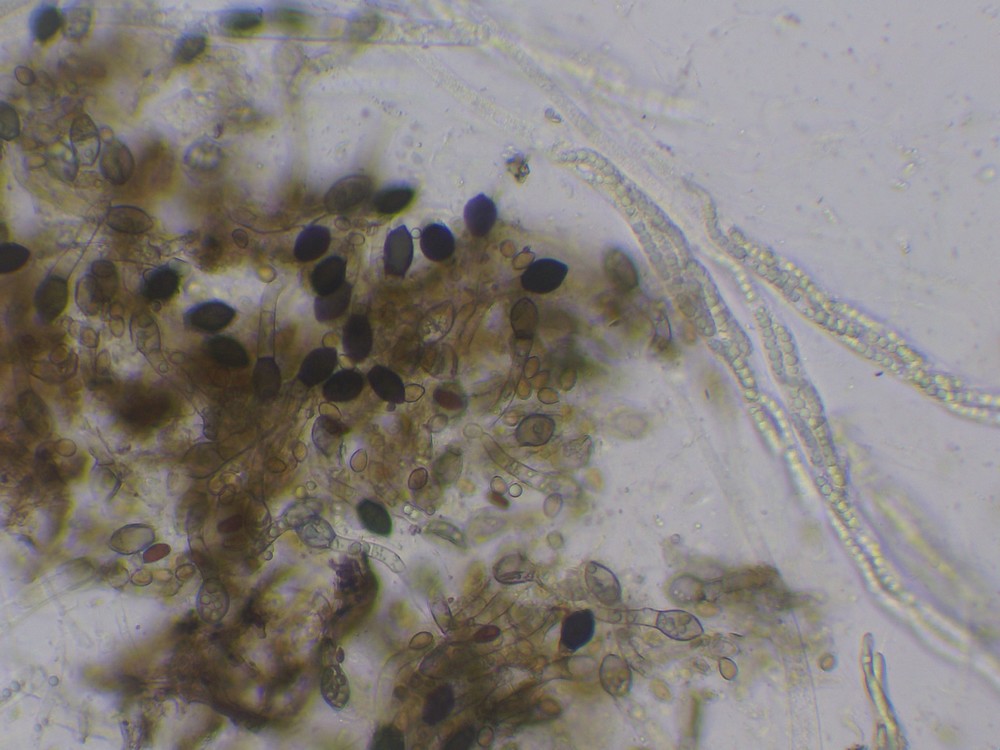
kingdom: Fungi
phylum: Ascomycota
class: Sordariomycetes
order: Sordariales
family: Bombardiaceae
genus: Bombardia
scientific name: Bombardia bombarda
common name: lædersæk-kernesvamp
